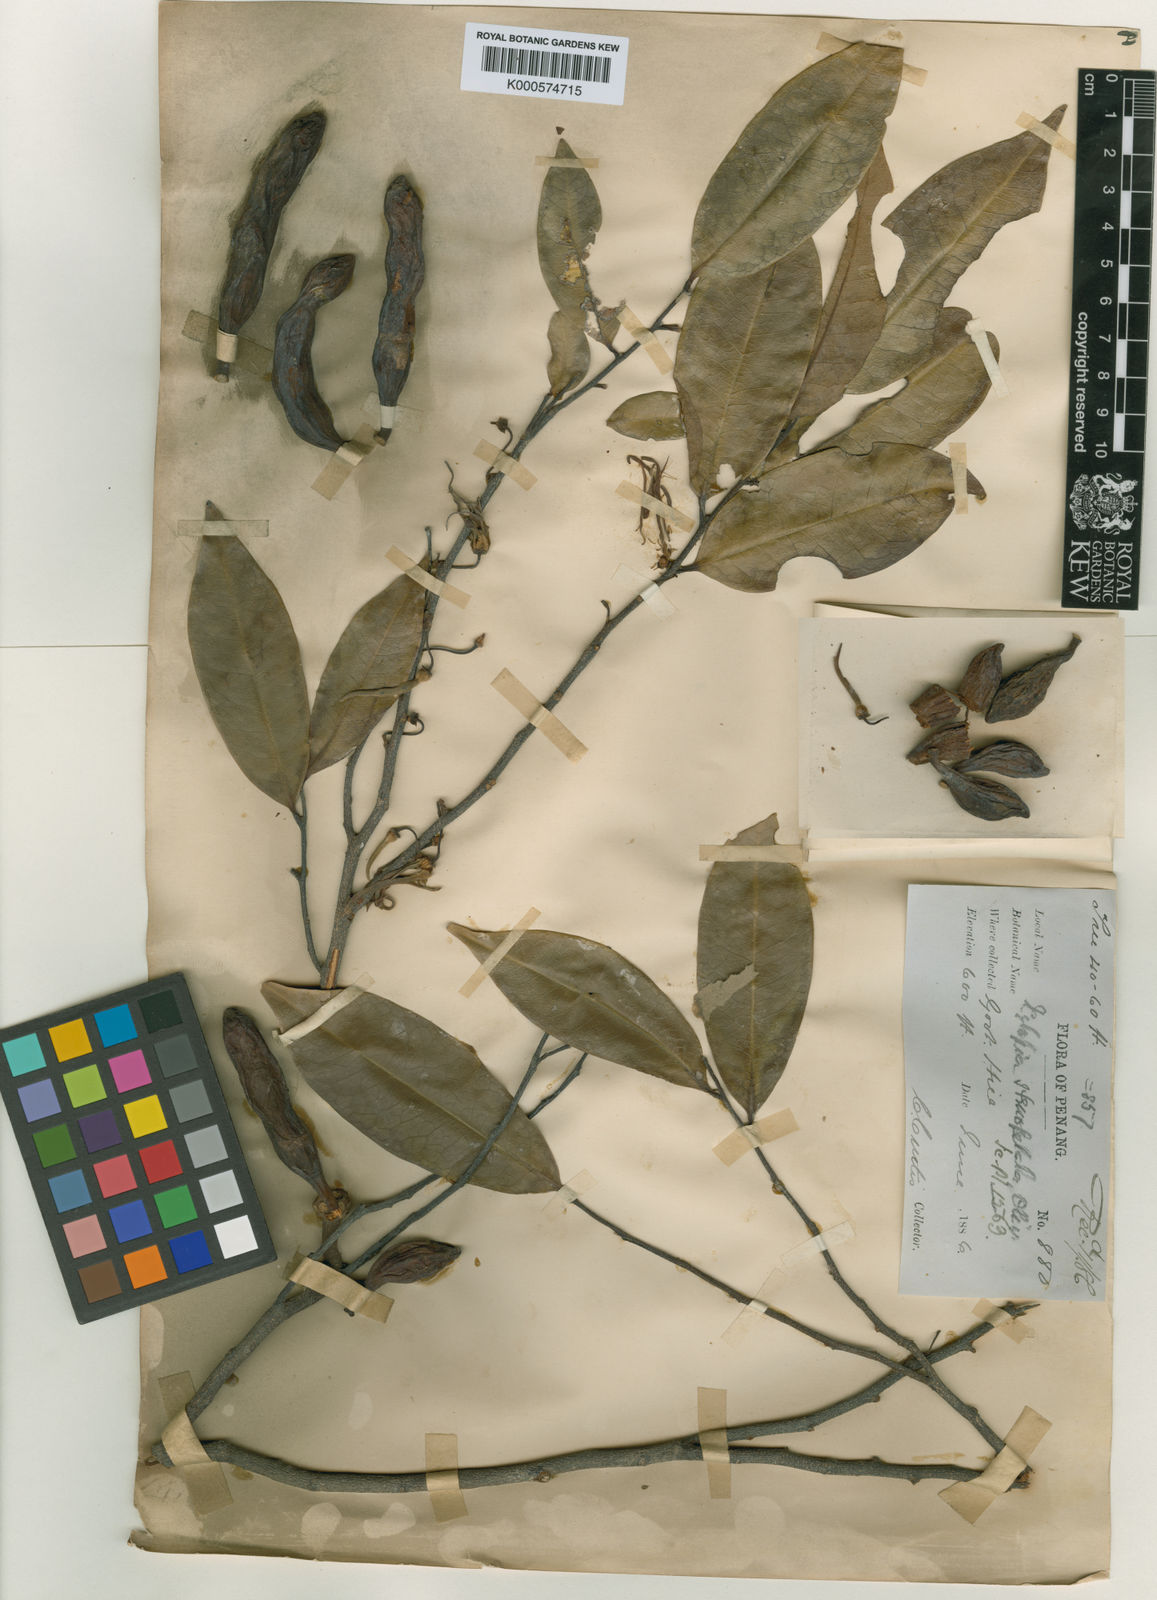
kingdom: Plantae
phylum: Tracheophyta
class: Magnoliopsida
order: Magnoliales
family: Annonaceae
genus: Xylopia
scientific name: Xylopia stenopetala
